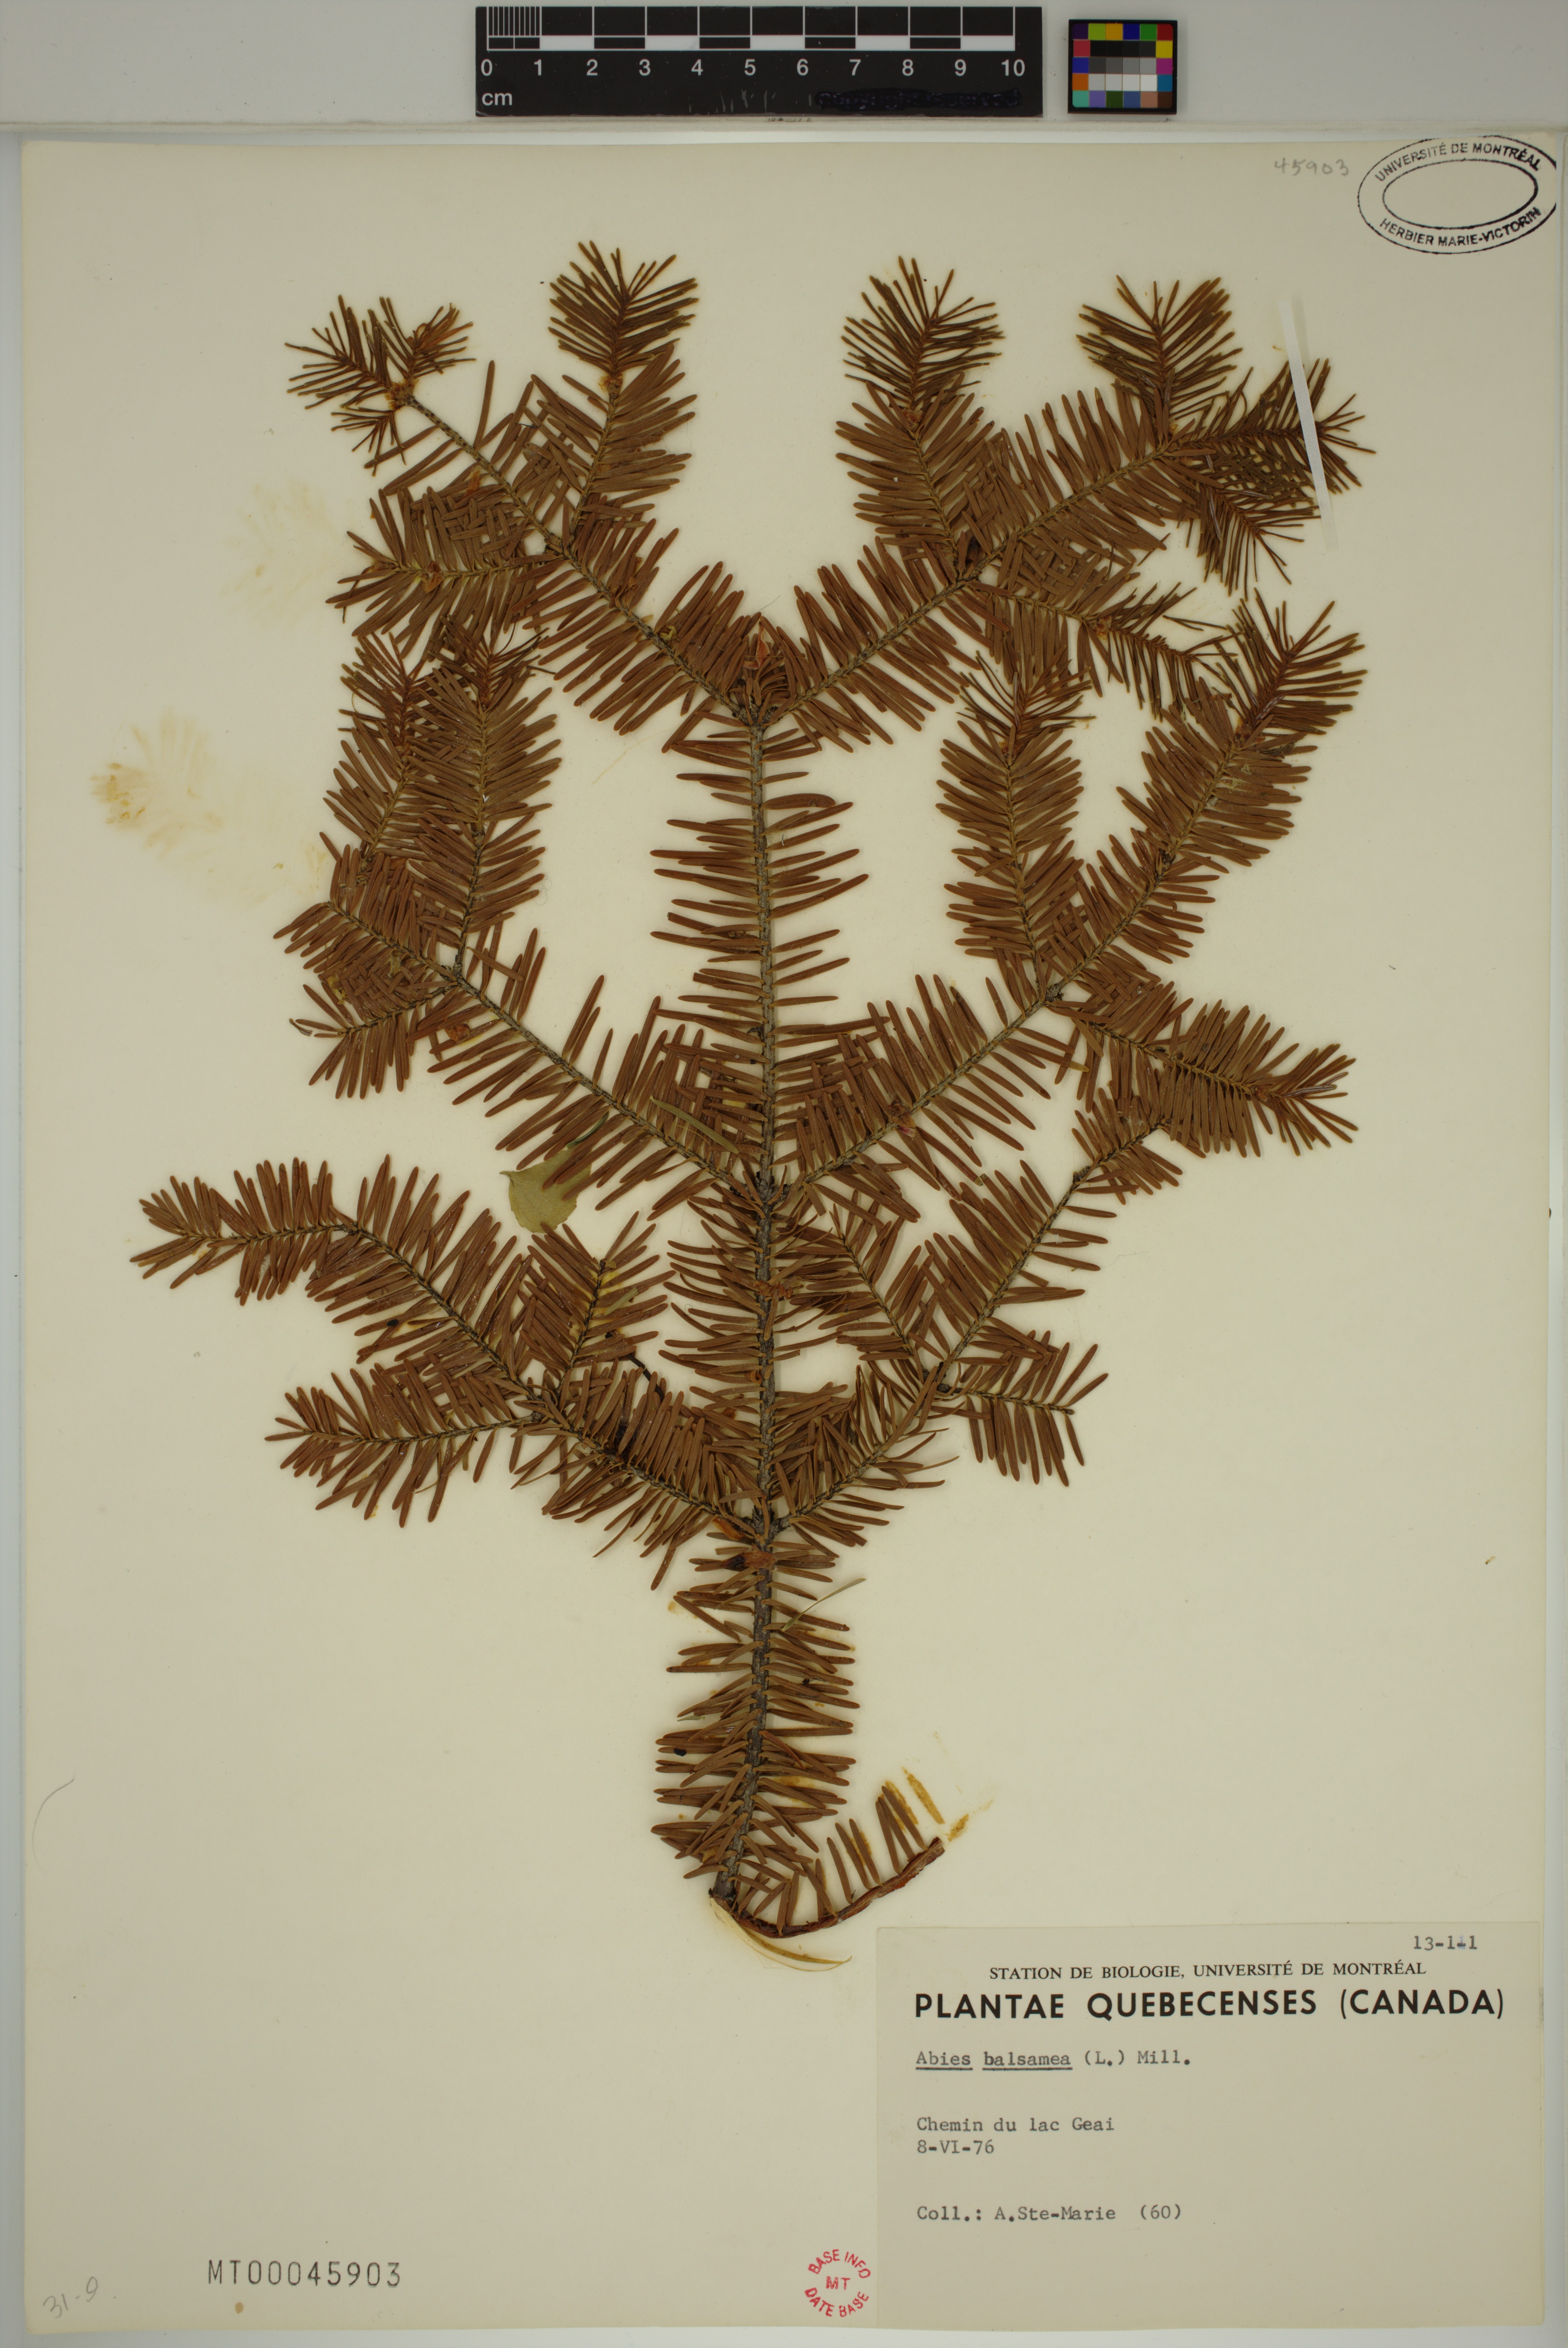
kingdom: Plantae
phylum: Tracheophyta
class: Pinopsida
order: Pinales
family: Pinaceae
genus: Abies
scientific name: Abies balsamea
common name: Balsam fir
